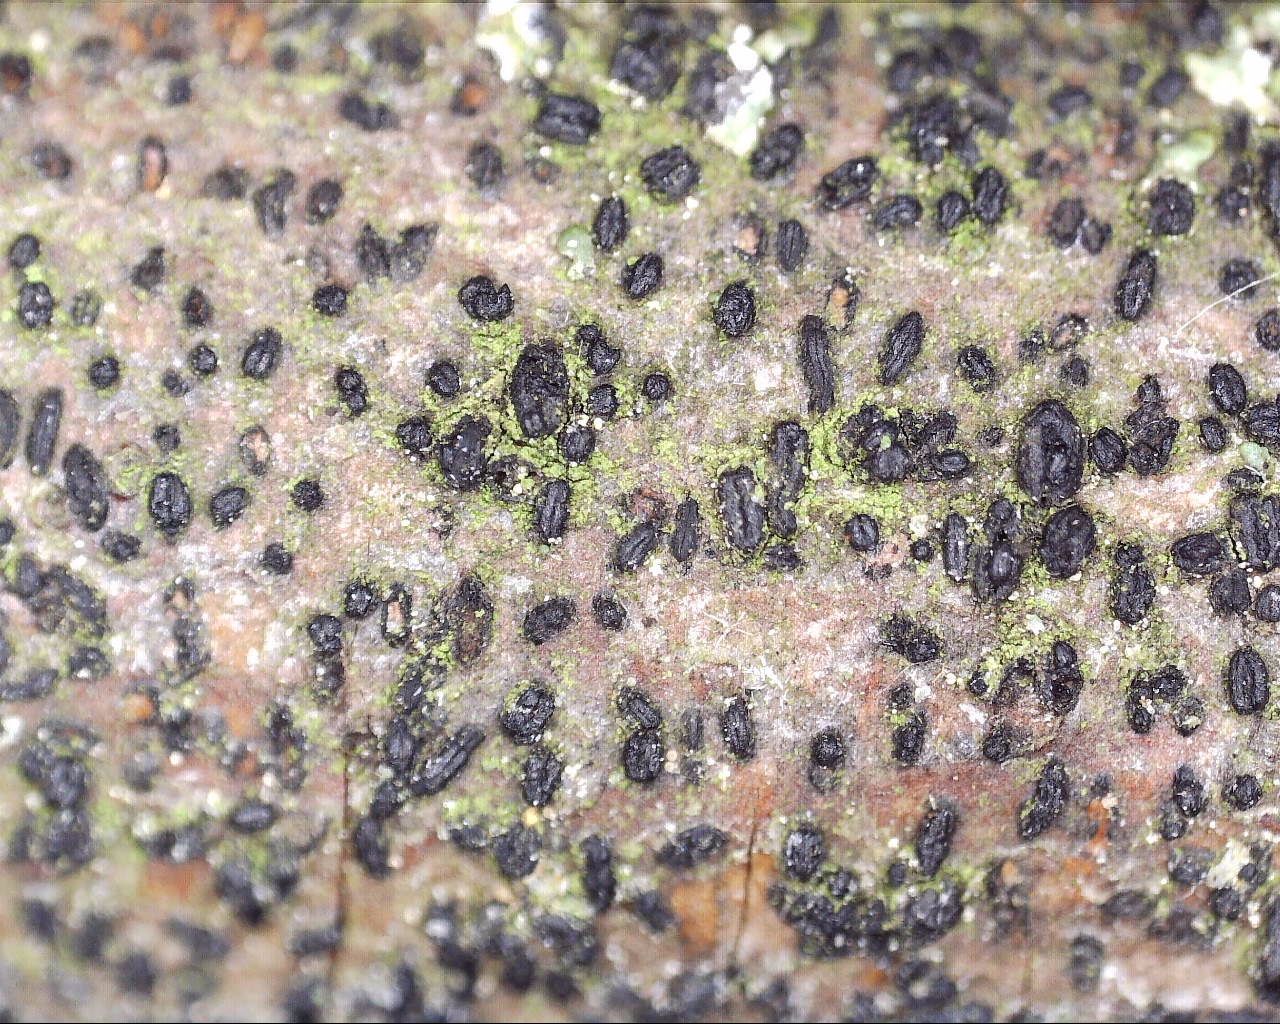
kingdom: Fungi
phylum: Ascomycota
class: Dothideomycetes
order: Hysteriales
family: Hysteriaceae
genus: Gloniopsis
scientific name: Gloniopsis praelonga
